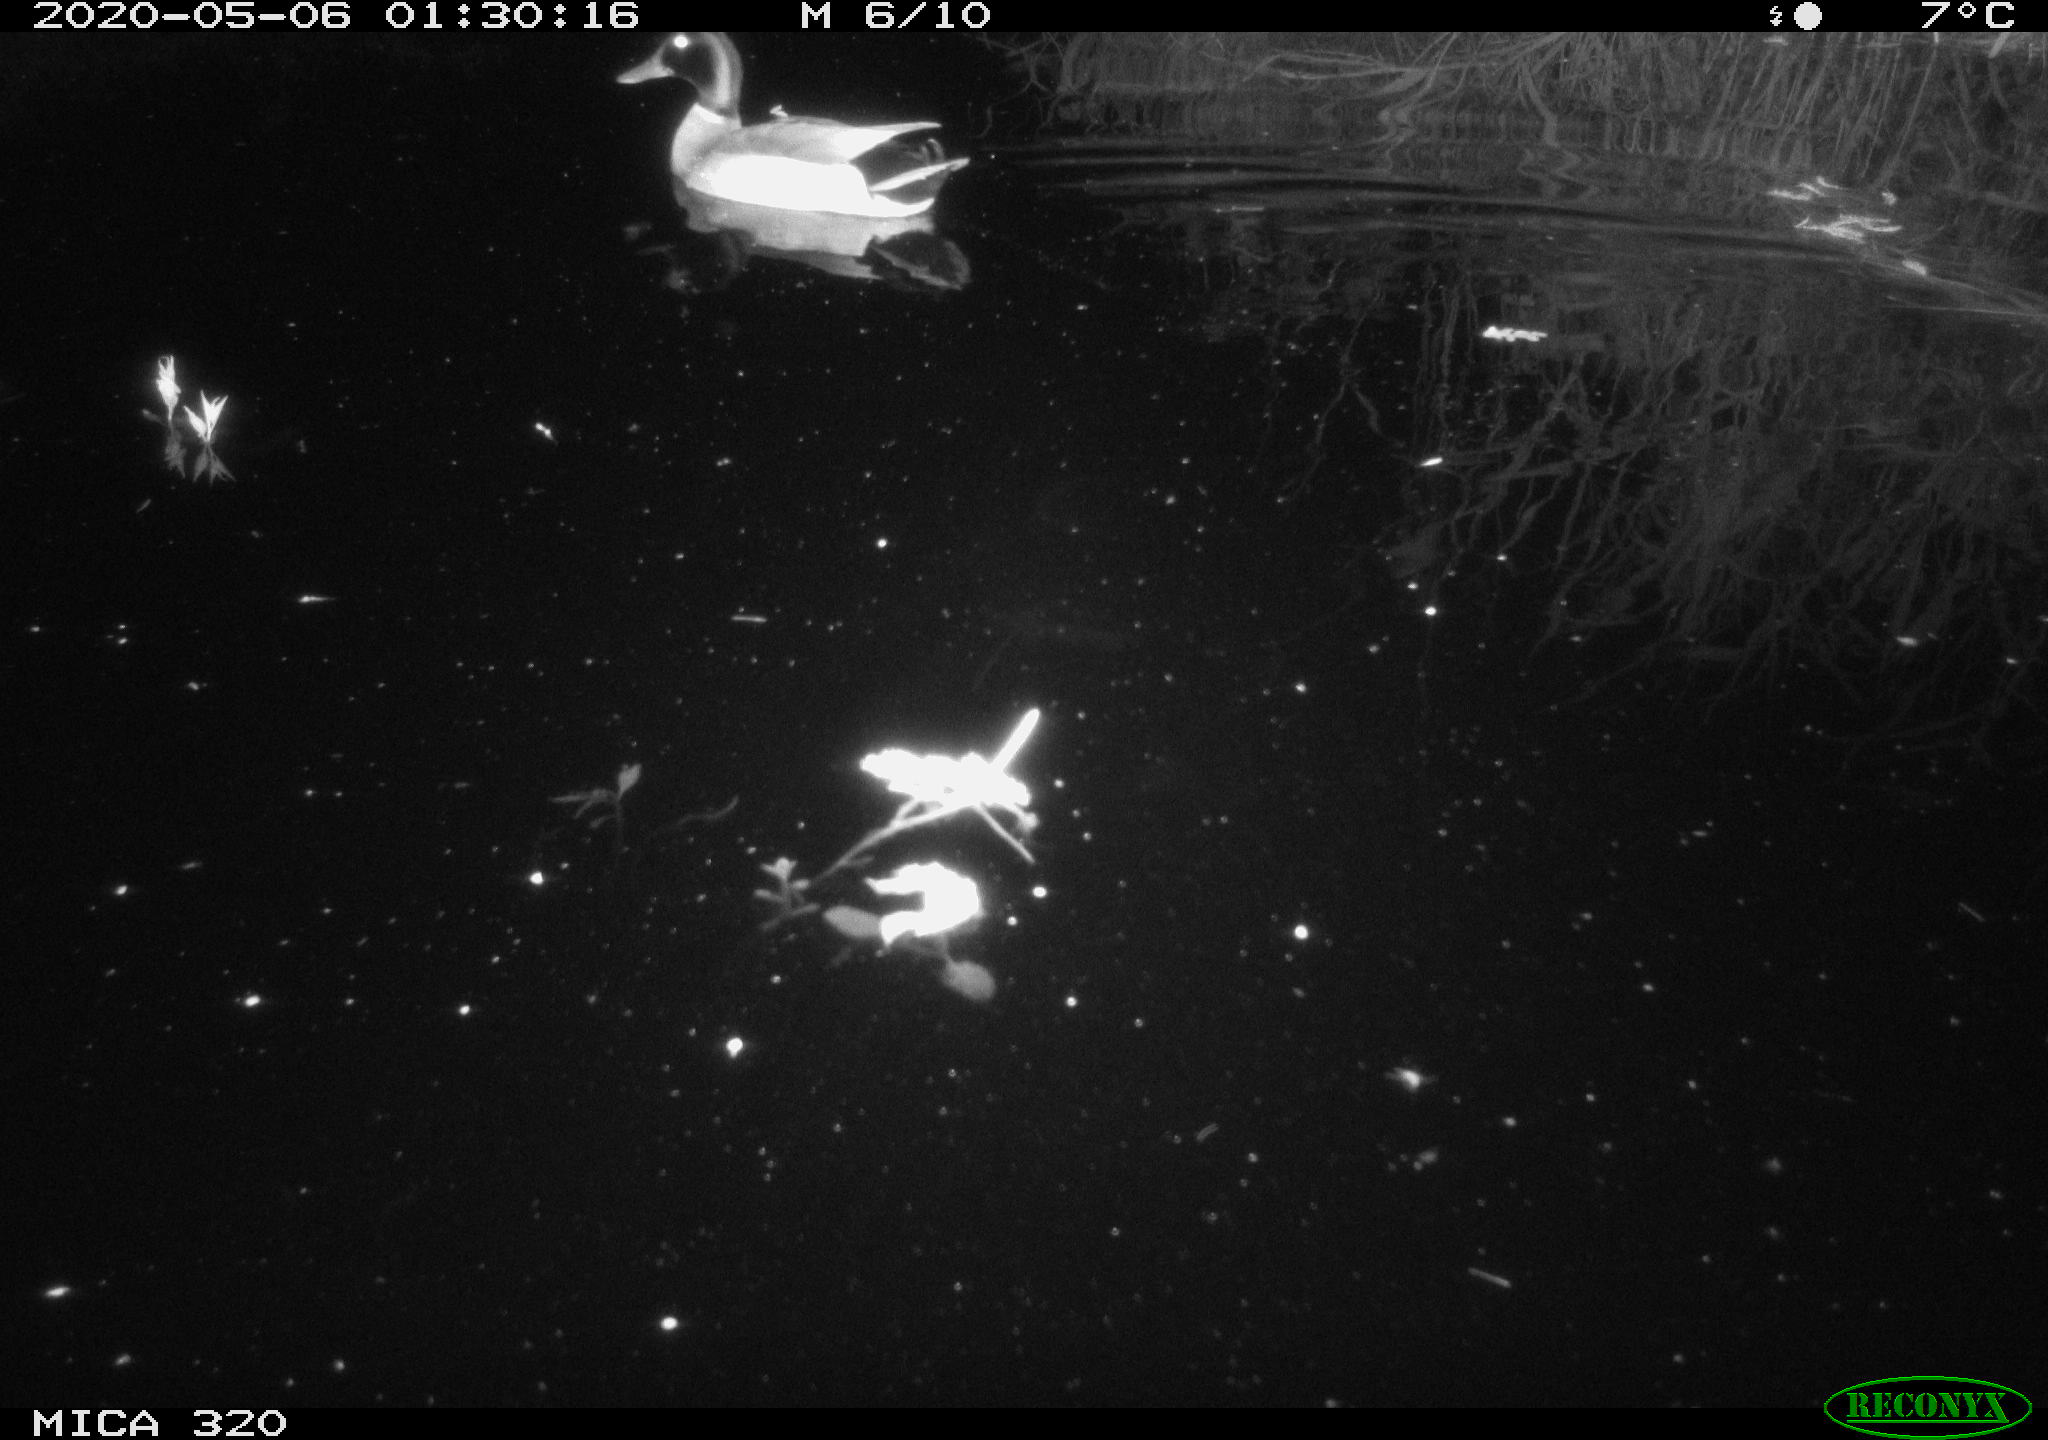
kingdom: Animalia
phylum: Chordata
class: Aves
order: Anseriformes
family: Anatidae
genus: Anas
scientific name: Anas platyrhynchos
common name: Mallard
